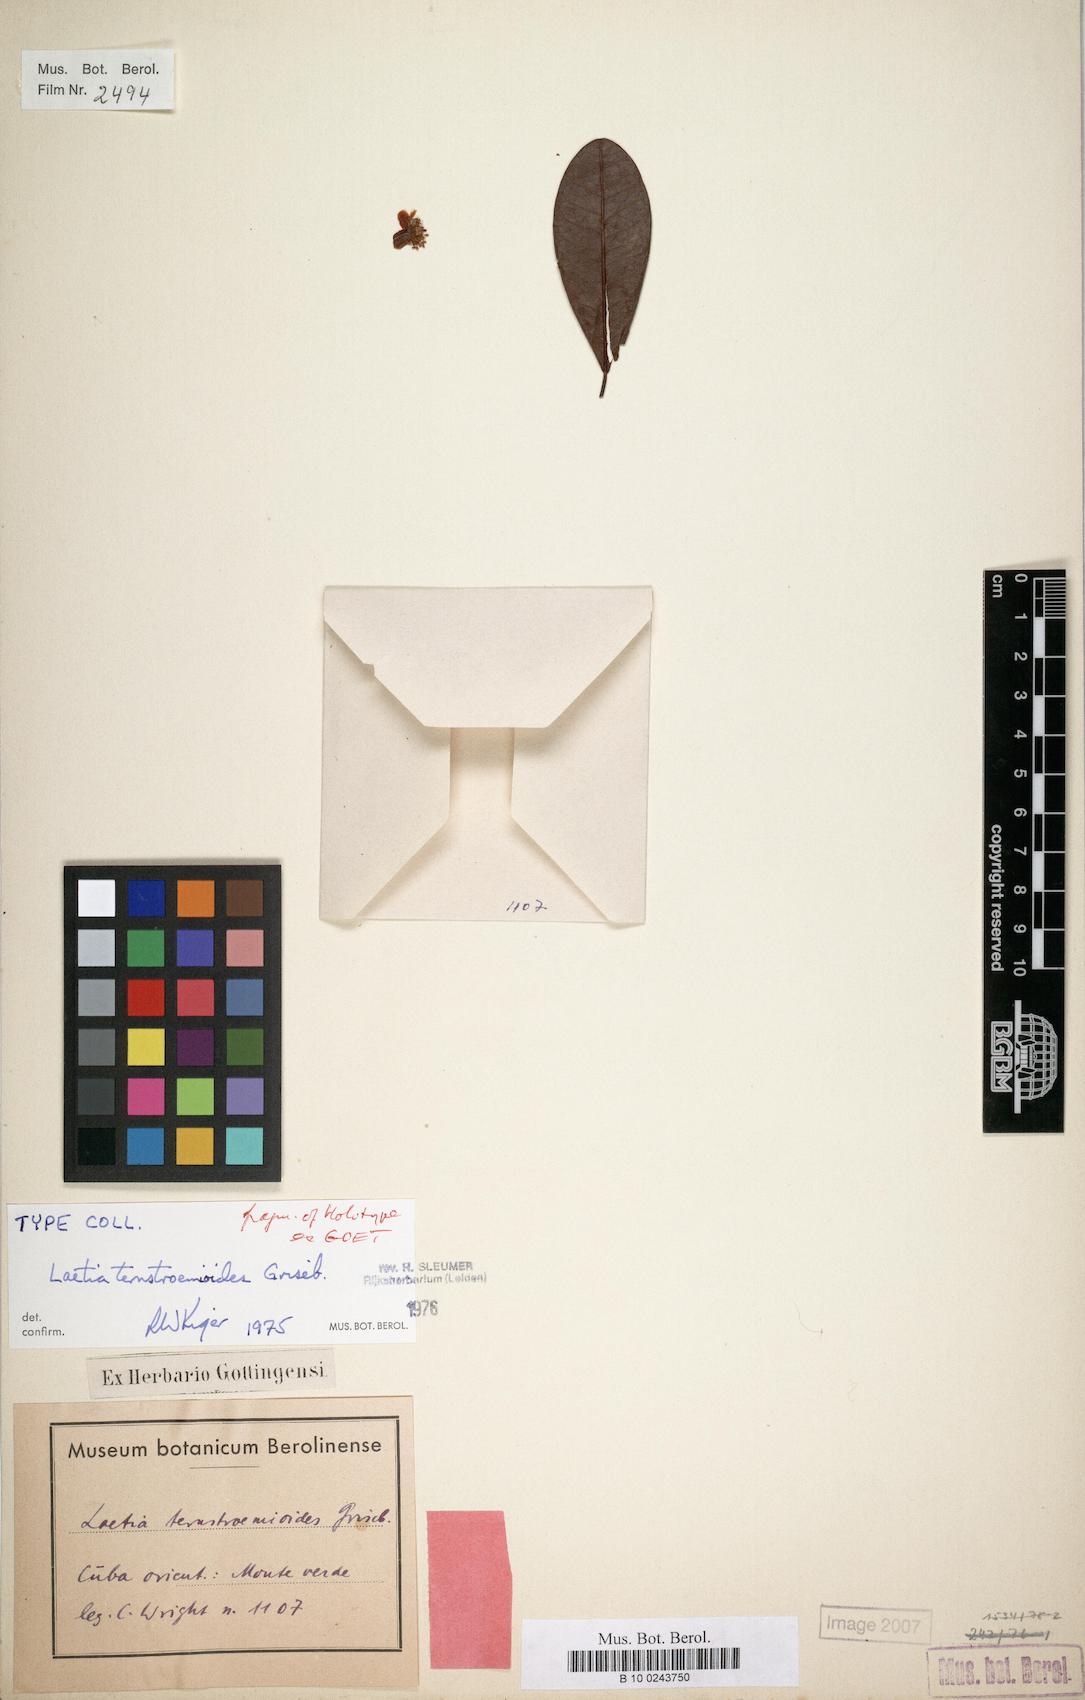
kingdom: Plantae
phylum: Tracheophyta
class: Magnoliopsida
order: Malpighiales
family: Salicaceae
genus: Casearia
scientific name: Casearia ternstroemioides
